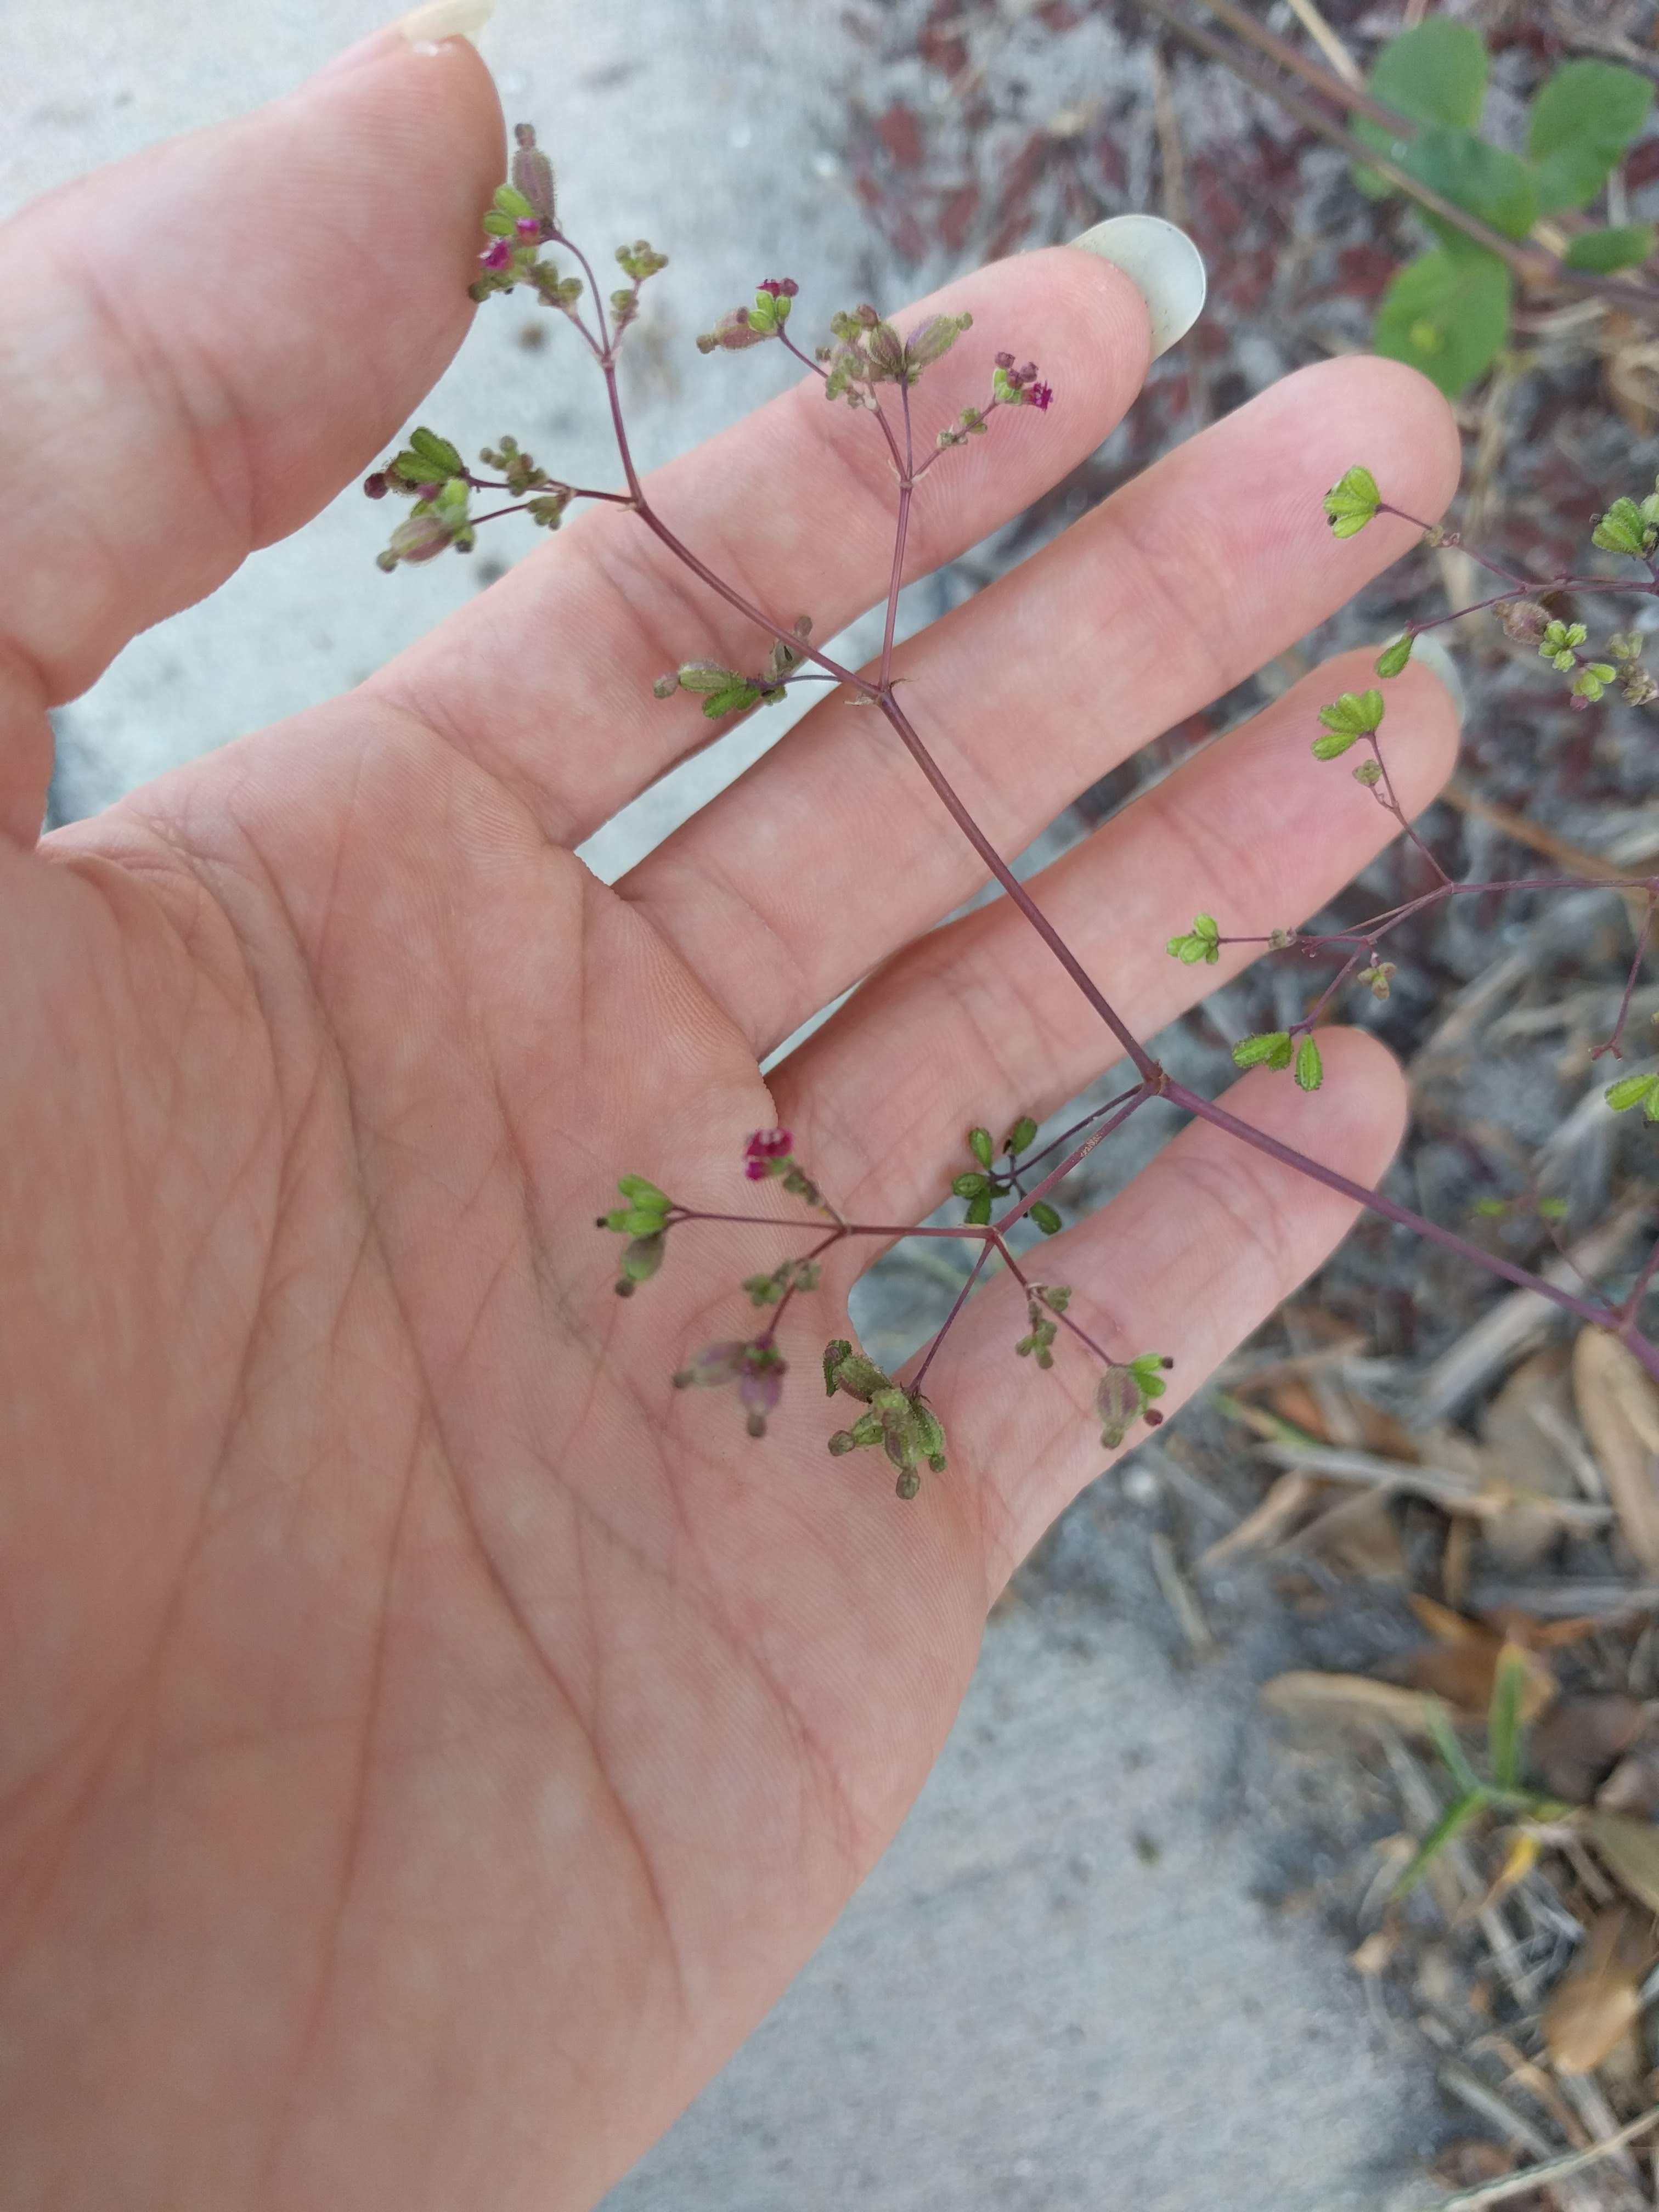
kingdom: Plantae
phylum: Tracheophyta
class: Magnoliopsida
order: Caryophyllales
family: Nyctaginaceae
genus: Boerhavia
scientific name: Boerhavia coccinea
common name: Scarlet spiderling
